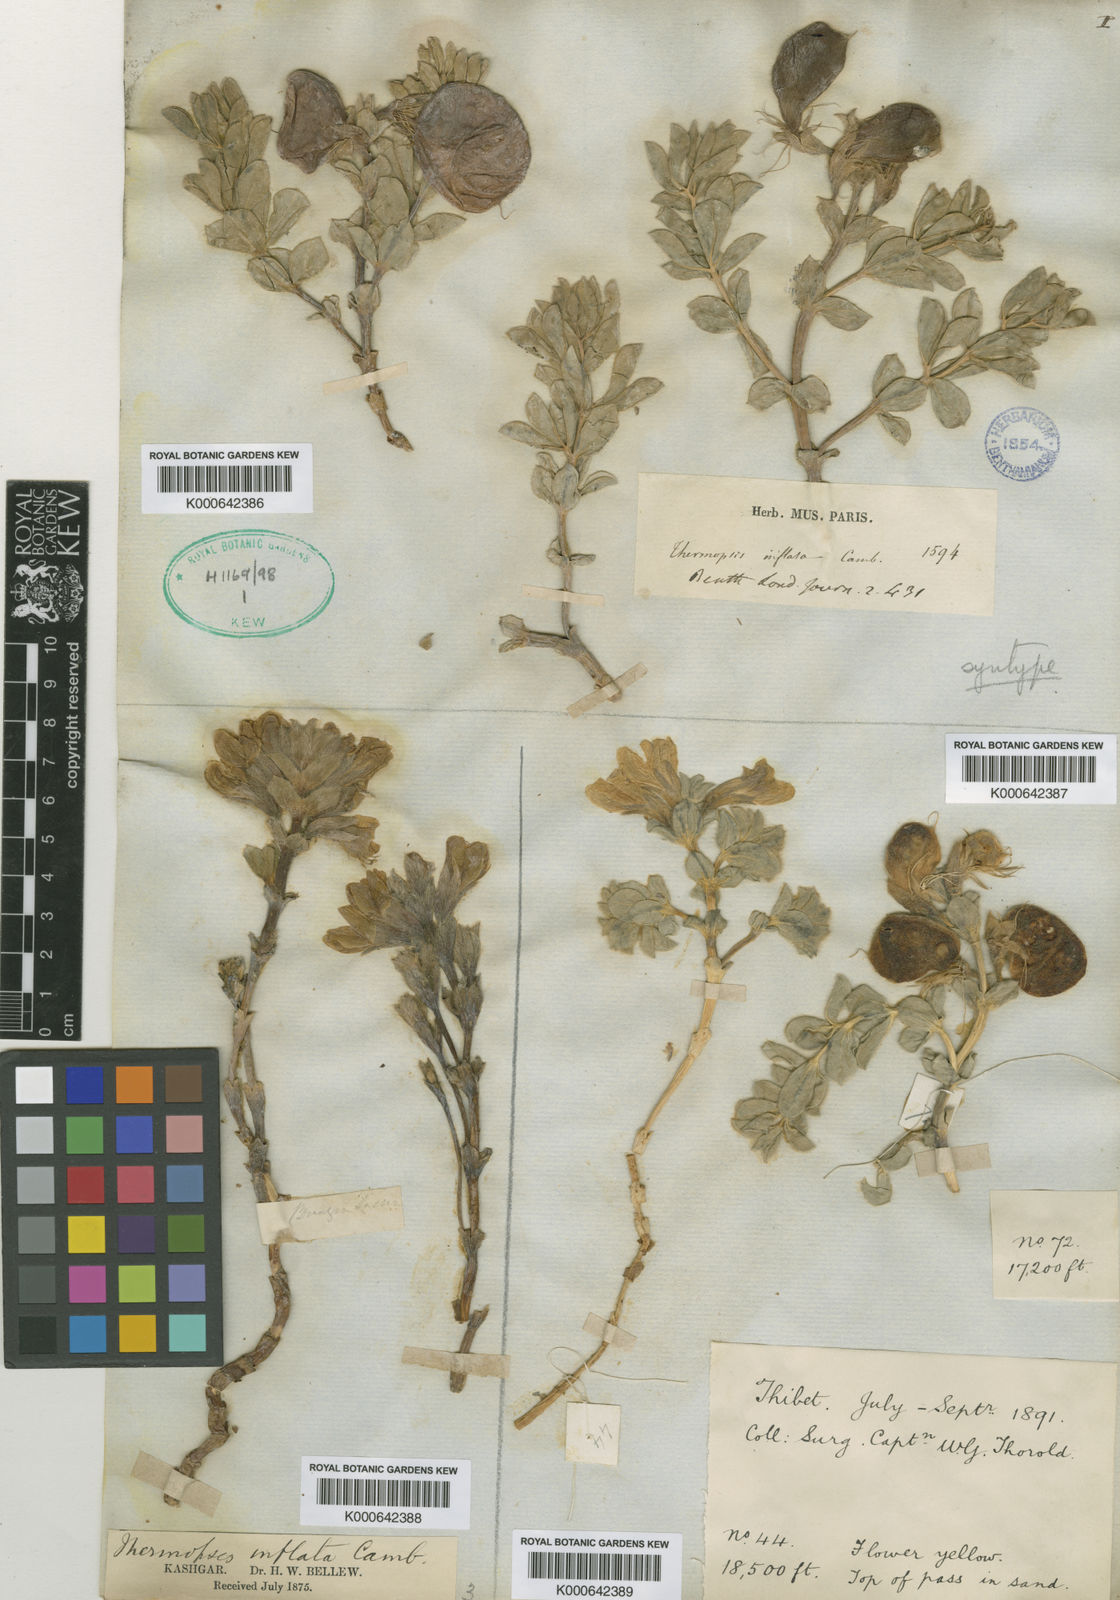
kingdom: Plantae
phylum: Tracheophyta
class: Magnoliopsida
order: Fabales
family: Fabaceae
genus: Thermopsis
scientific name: Thermopsis inflata
